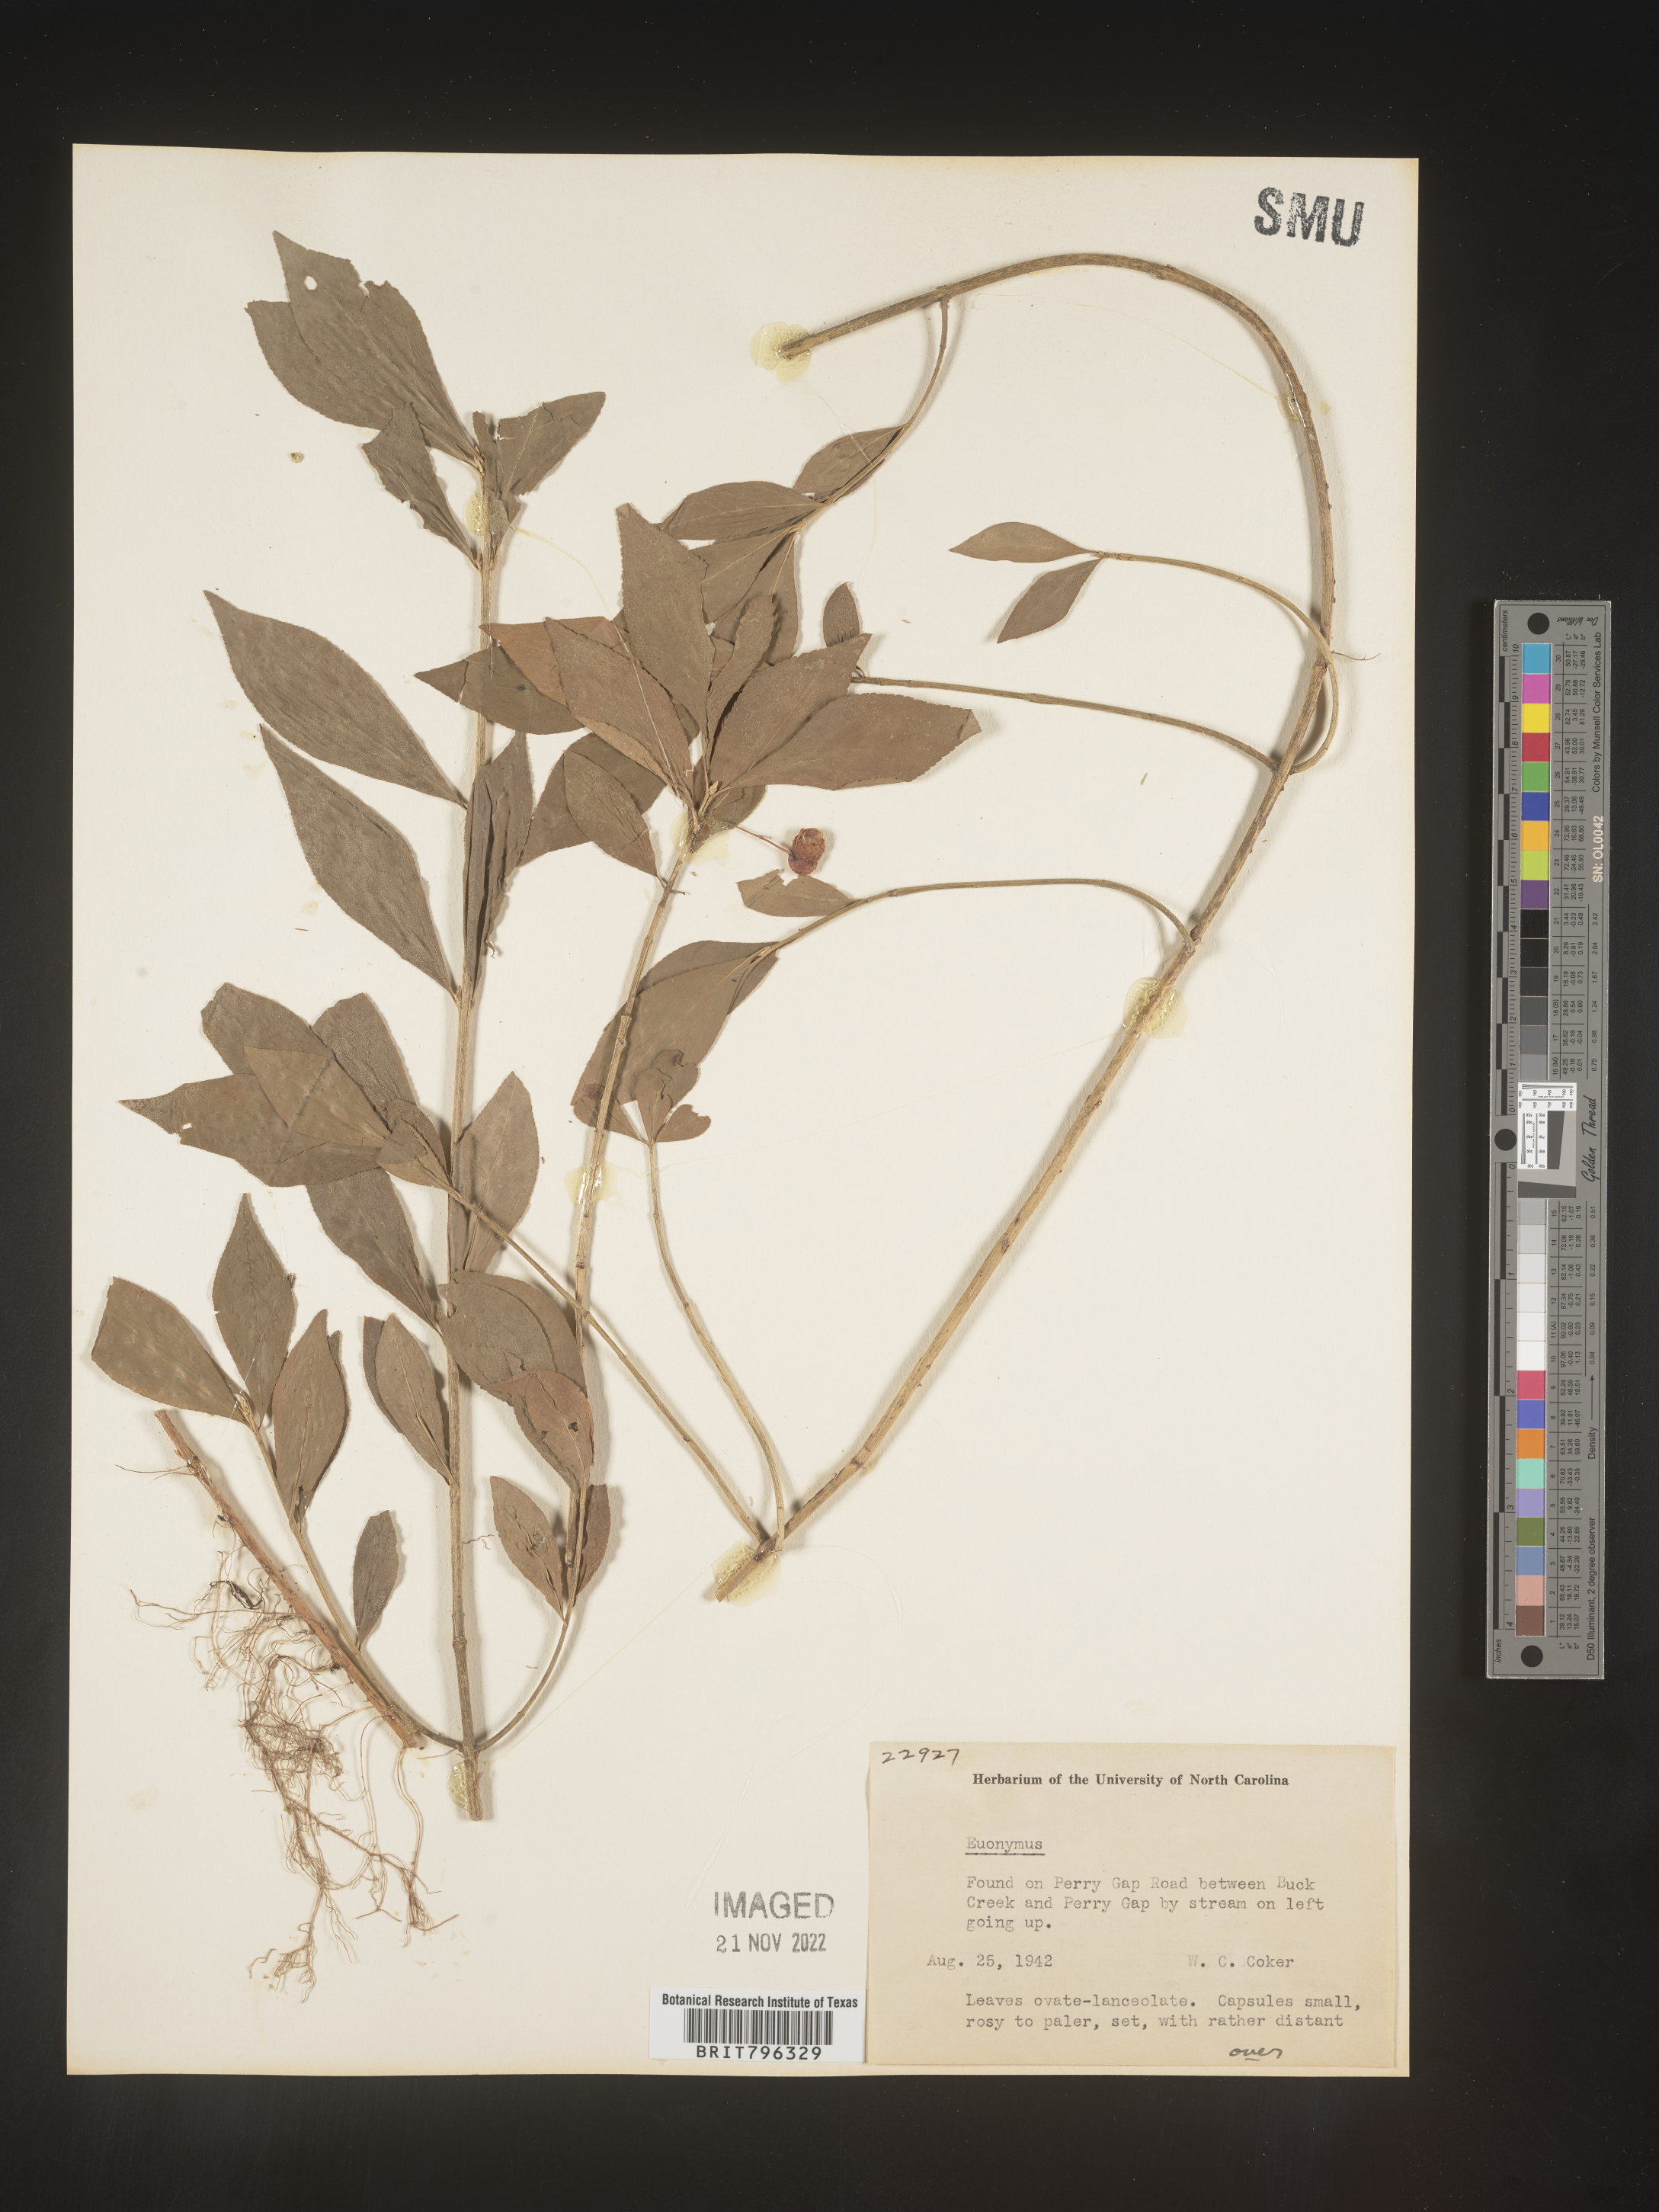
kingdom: Plantae
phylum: Tracheophyta
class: Magnoliopsida
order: Celastrales
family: Celastraceae
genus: Euonymus
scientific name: Euonymus
